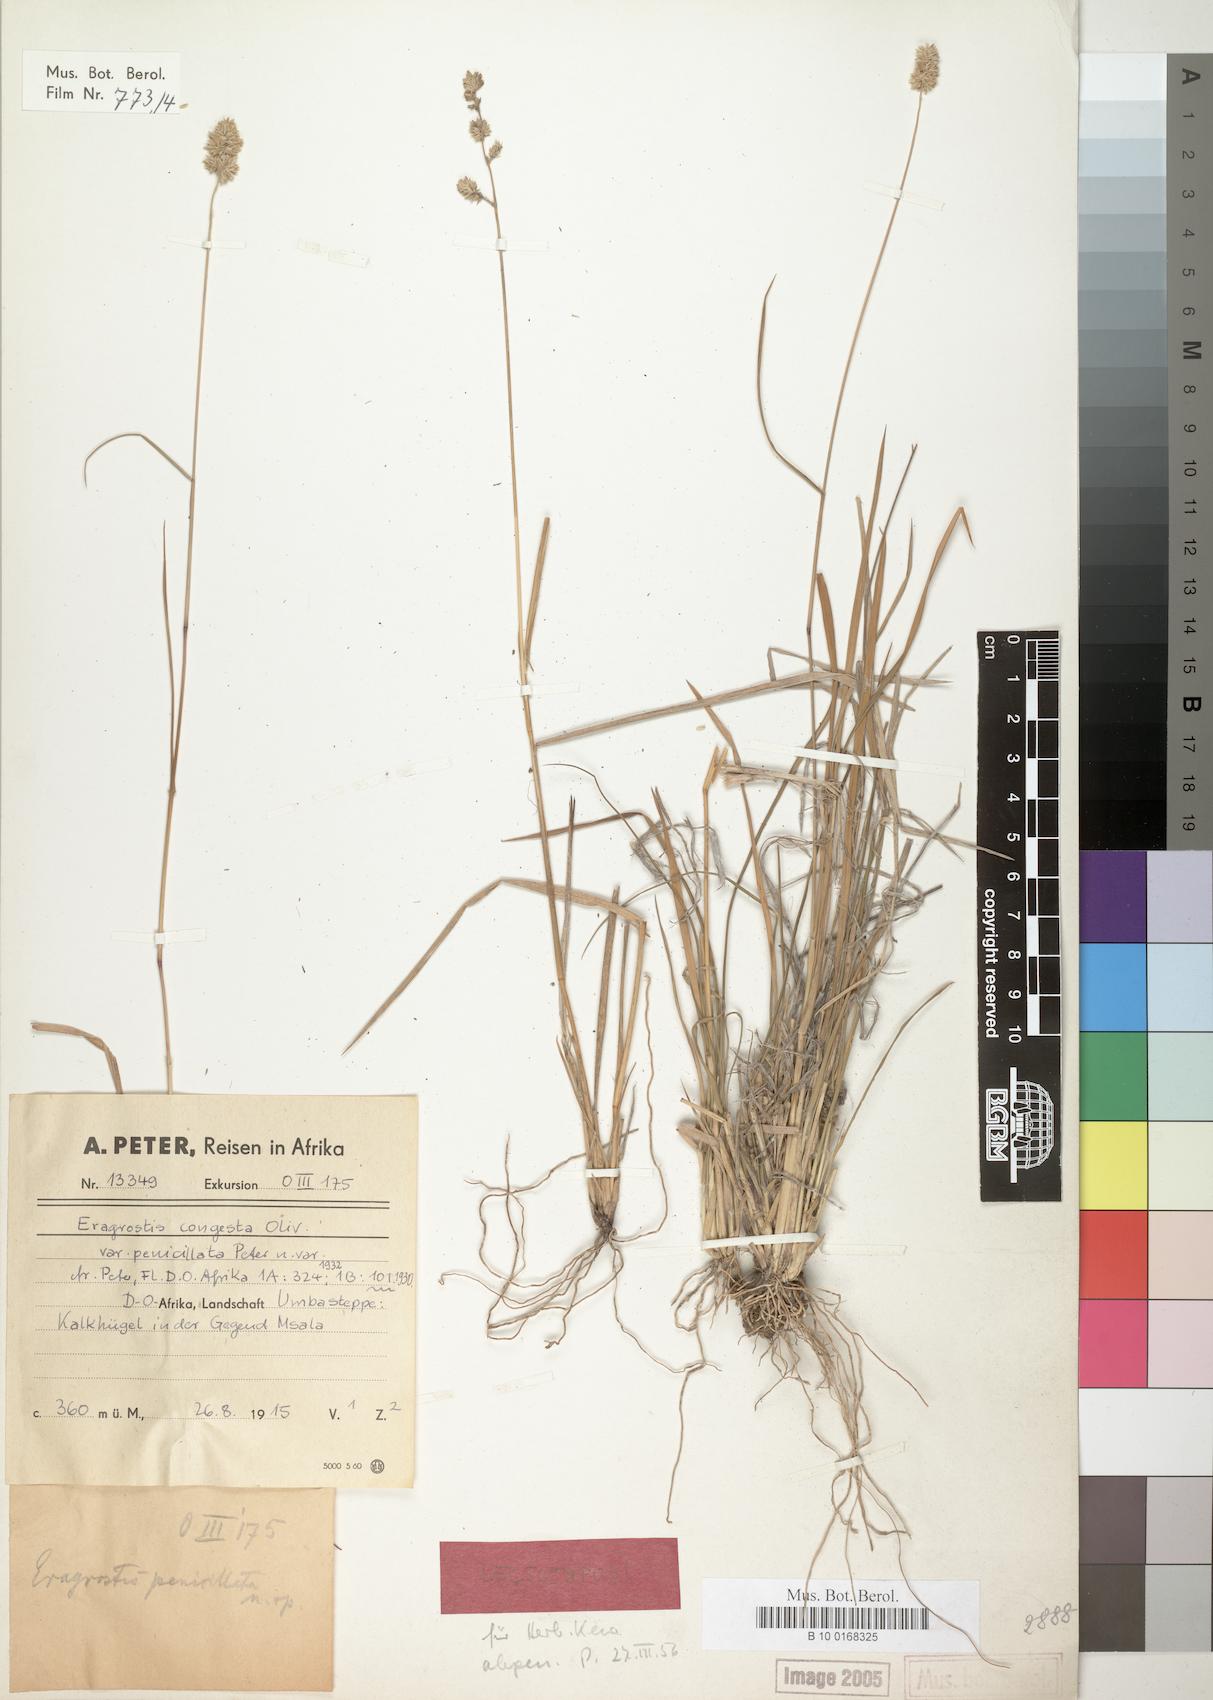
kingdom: Plantae
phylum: Tracheophyta
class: Liliopsida
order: Poales
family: Poaceae
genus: Eragrostis
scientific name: Eragrostis congesta
